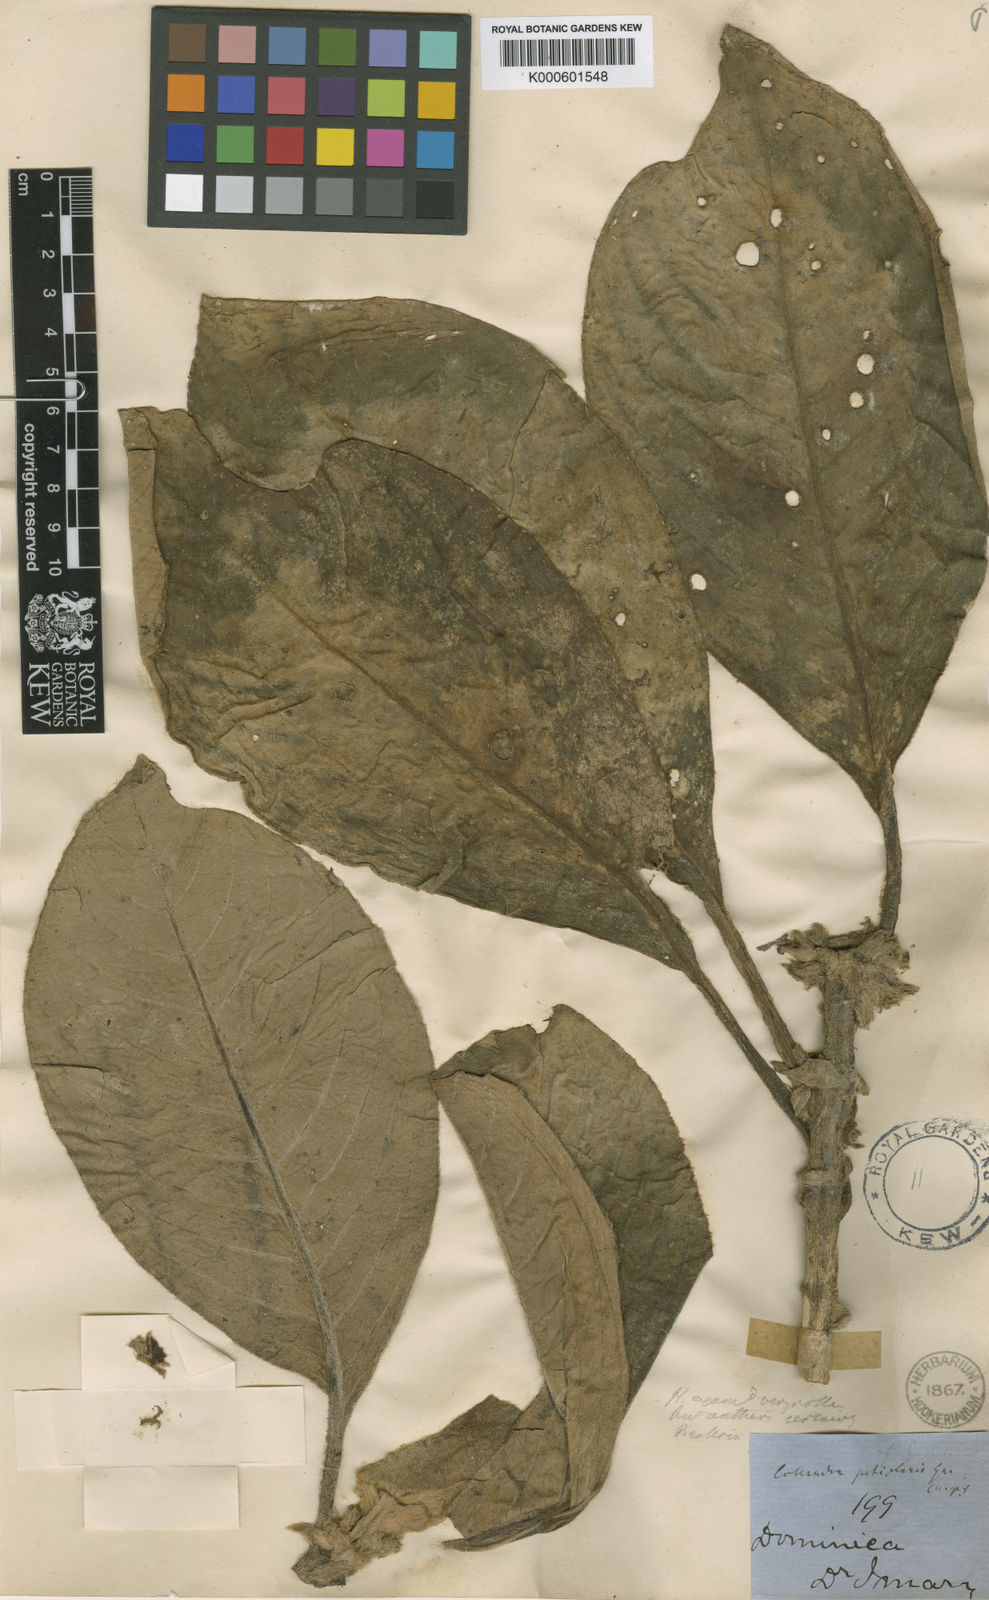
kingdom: Plantae
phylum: Tracheophyta
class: Magnoliopsida
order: Lamiales
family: Gesneriaceae
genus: Besleria
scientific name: Besleria petiolaris
